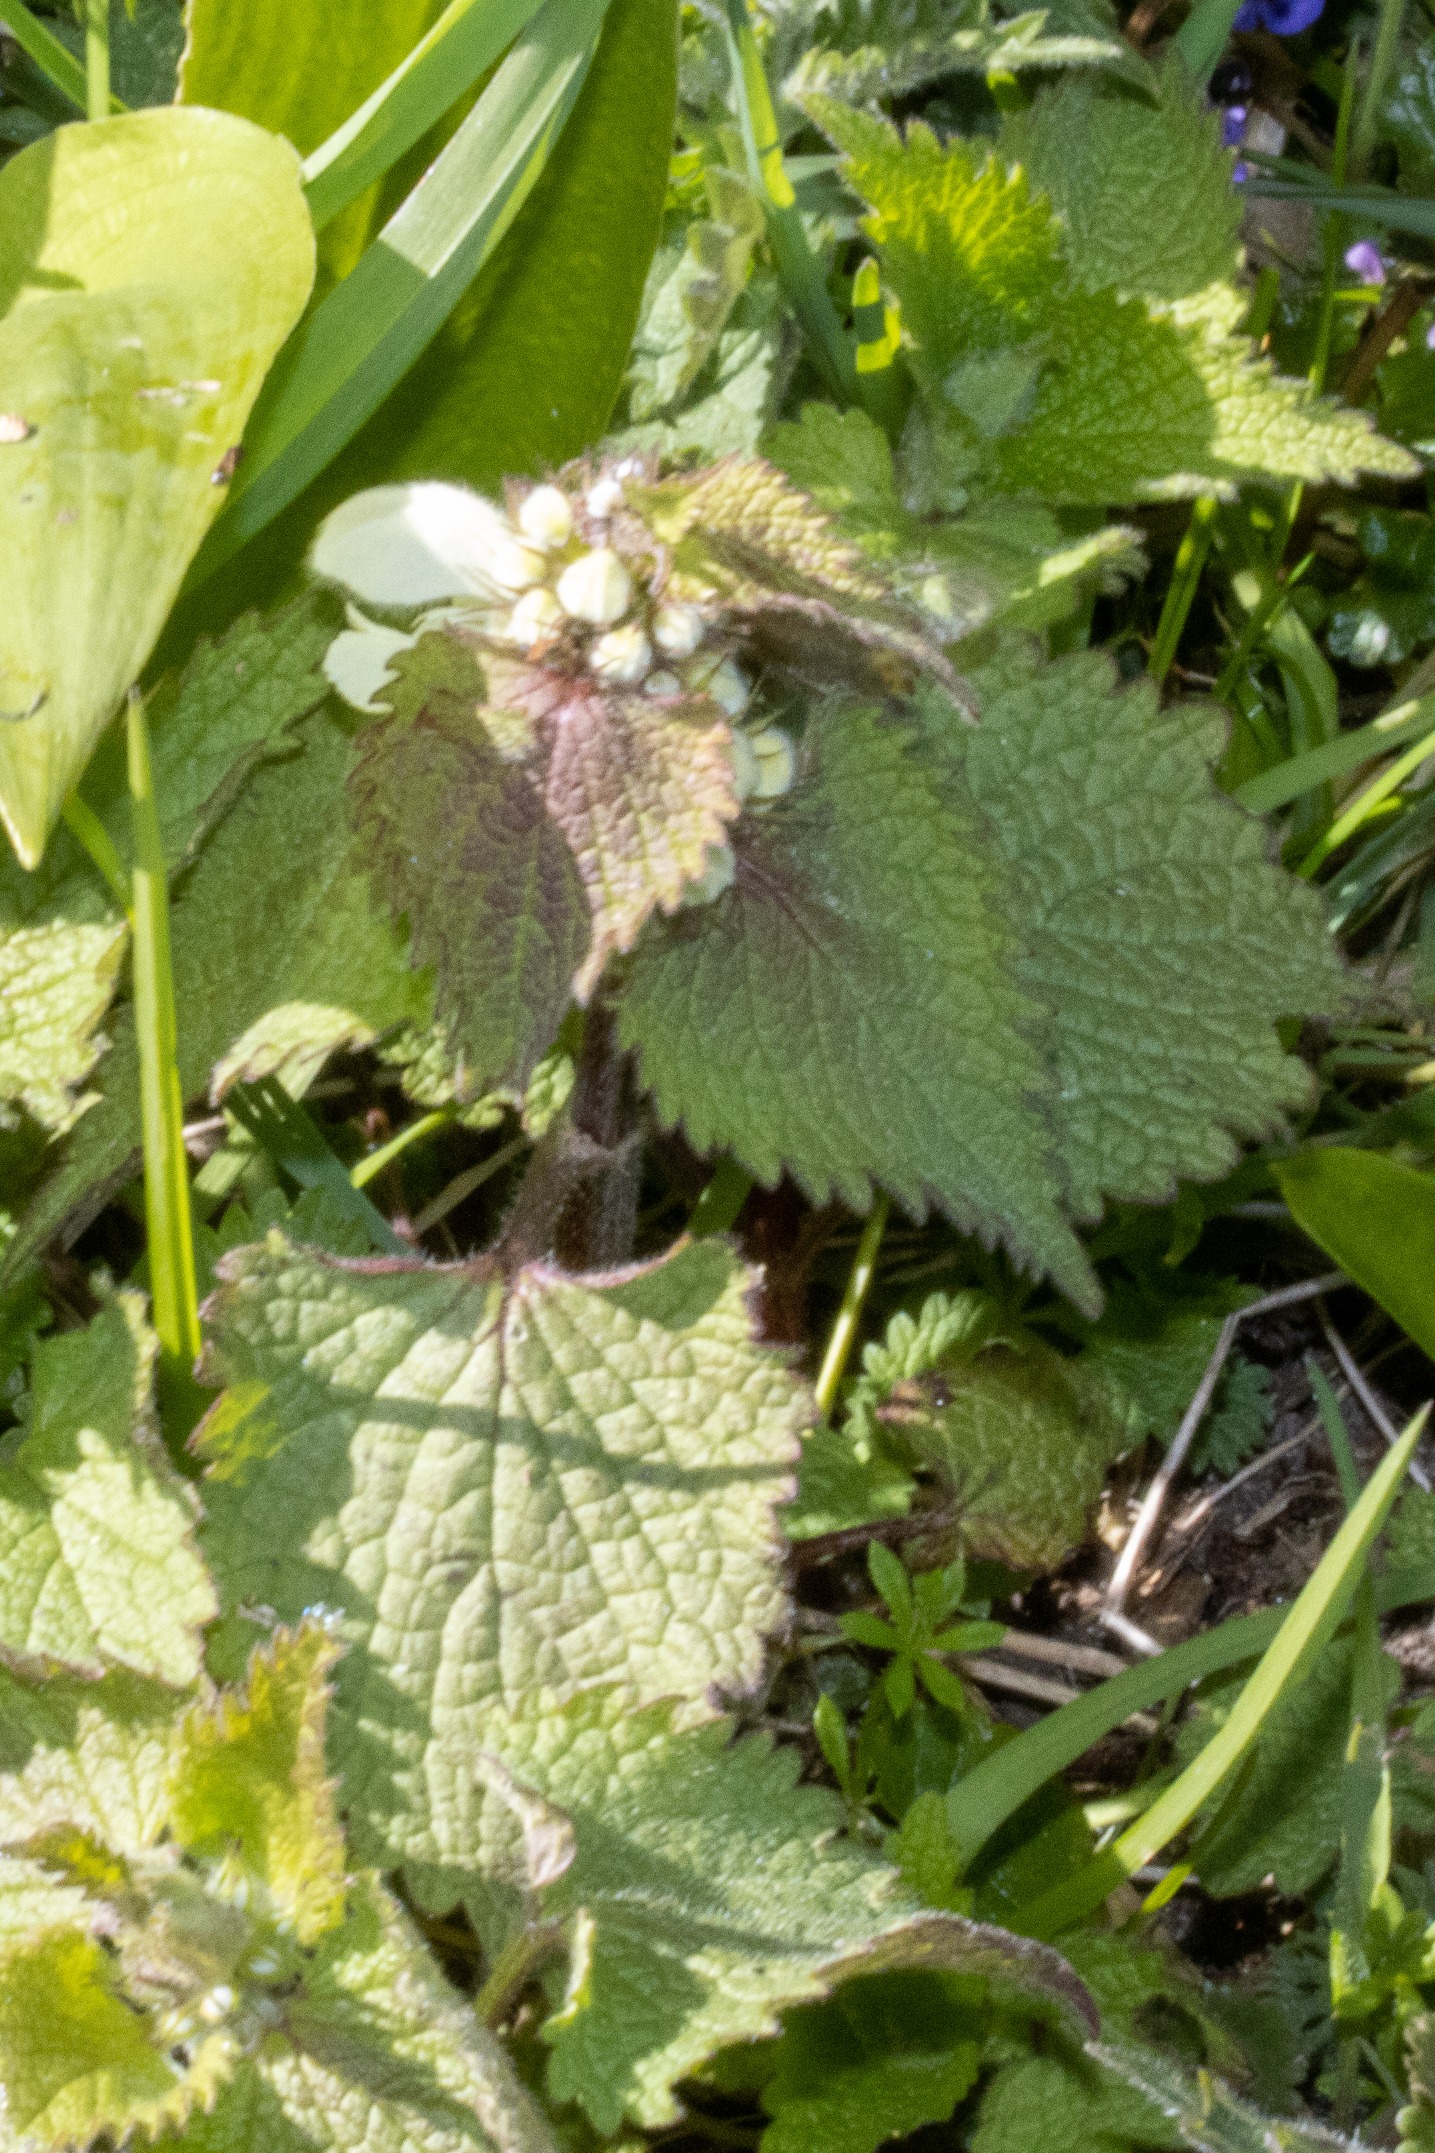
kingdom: Plantae
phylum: Tracheophyta
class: Magnoliopsida
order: Lamiales
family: Lamiaceae
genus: Lamium
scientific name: Lamium album
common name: Døvnælde
